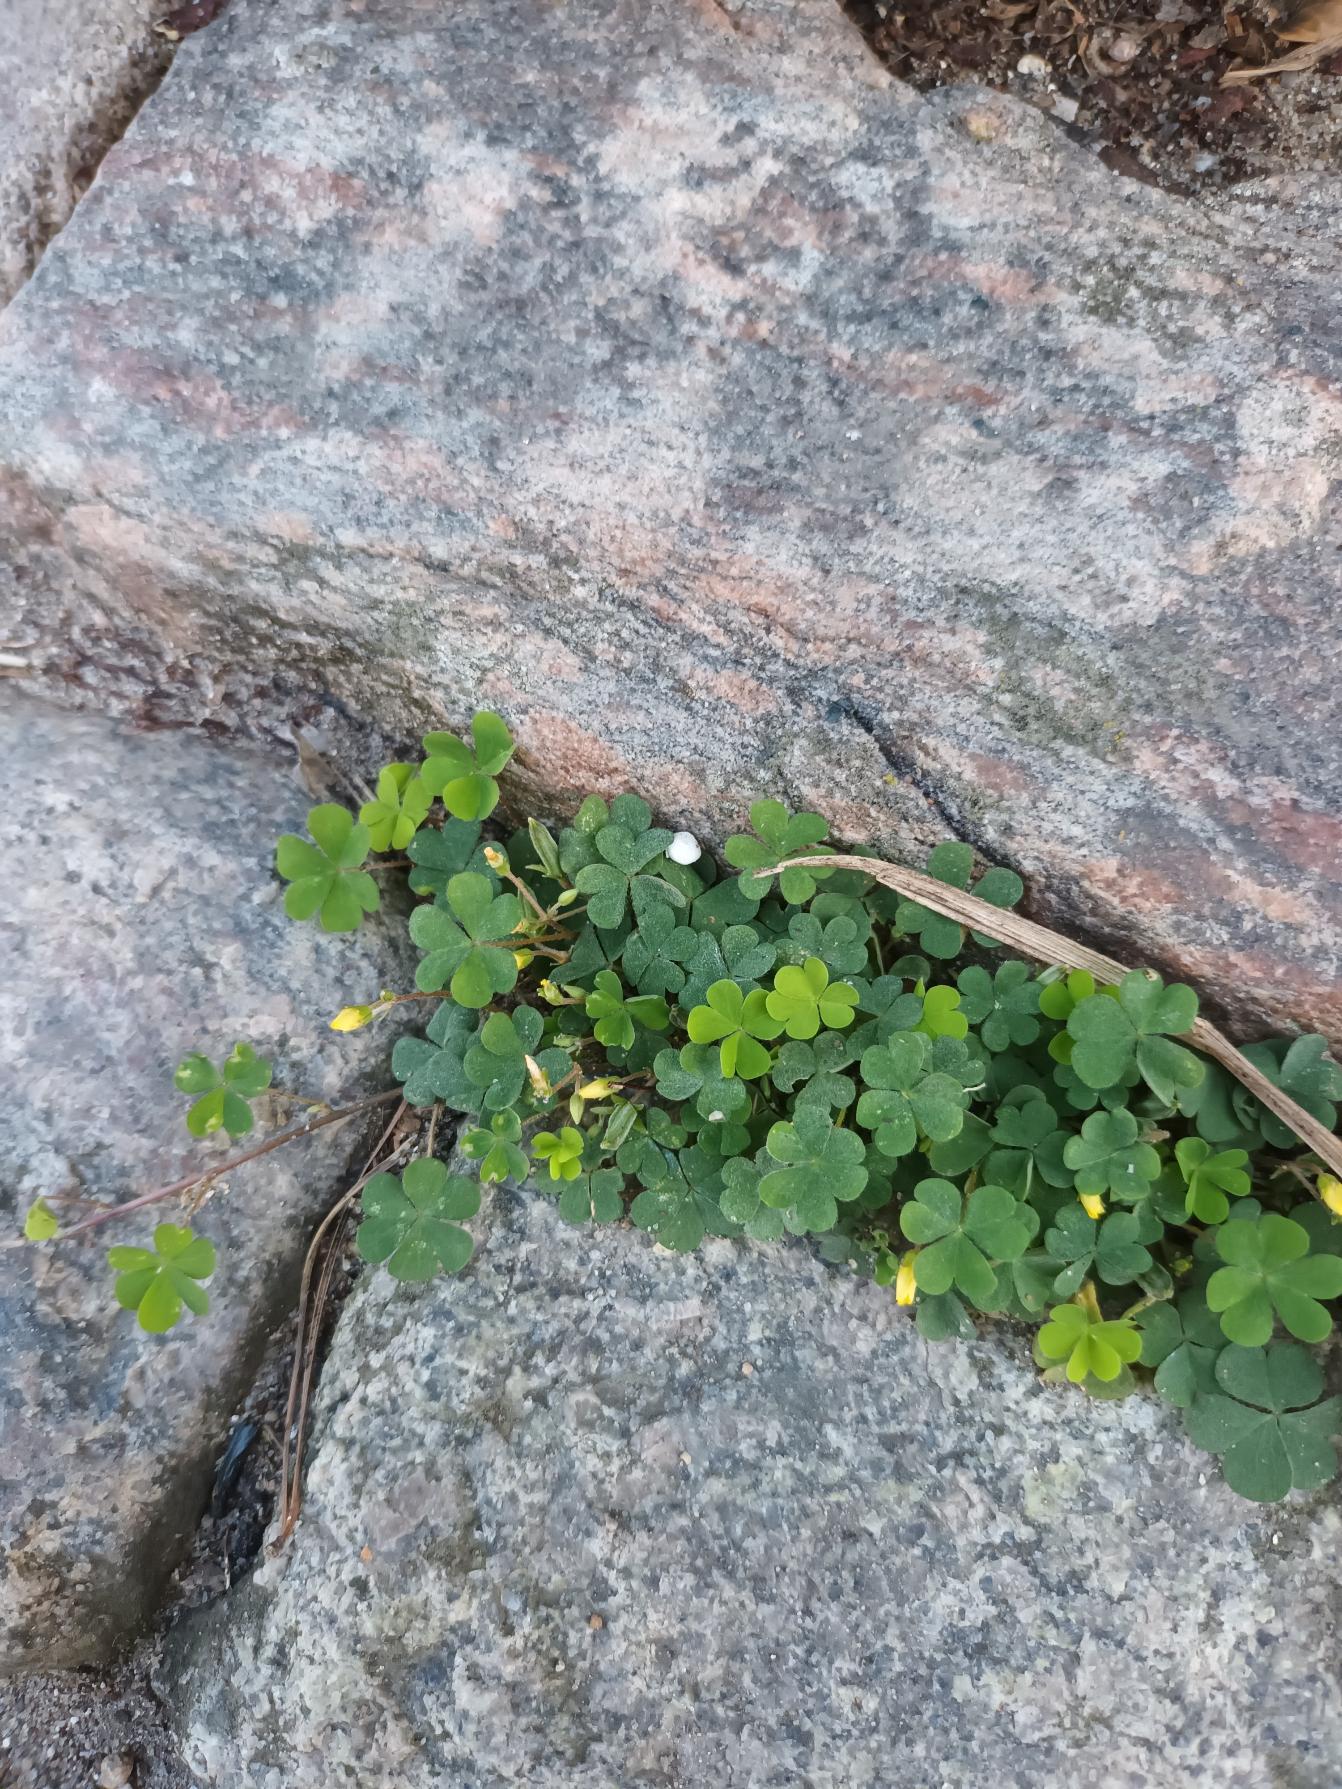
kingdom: Plantae
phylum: Tracheophyta
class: Magnoliopsida
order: Oxalidales
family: Oxalidaceae
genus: Oxalis
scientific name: Oxalis corniculata
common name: Nedliggende surkløver
